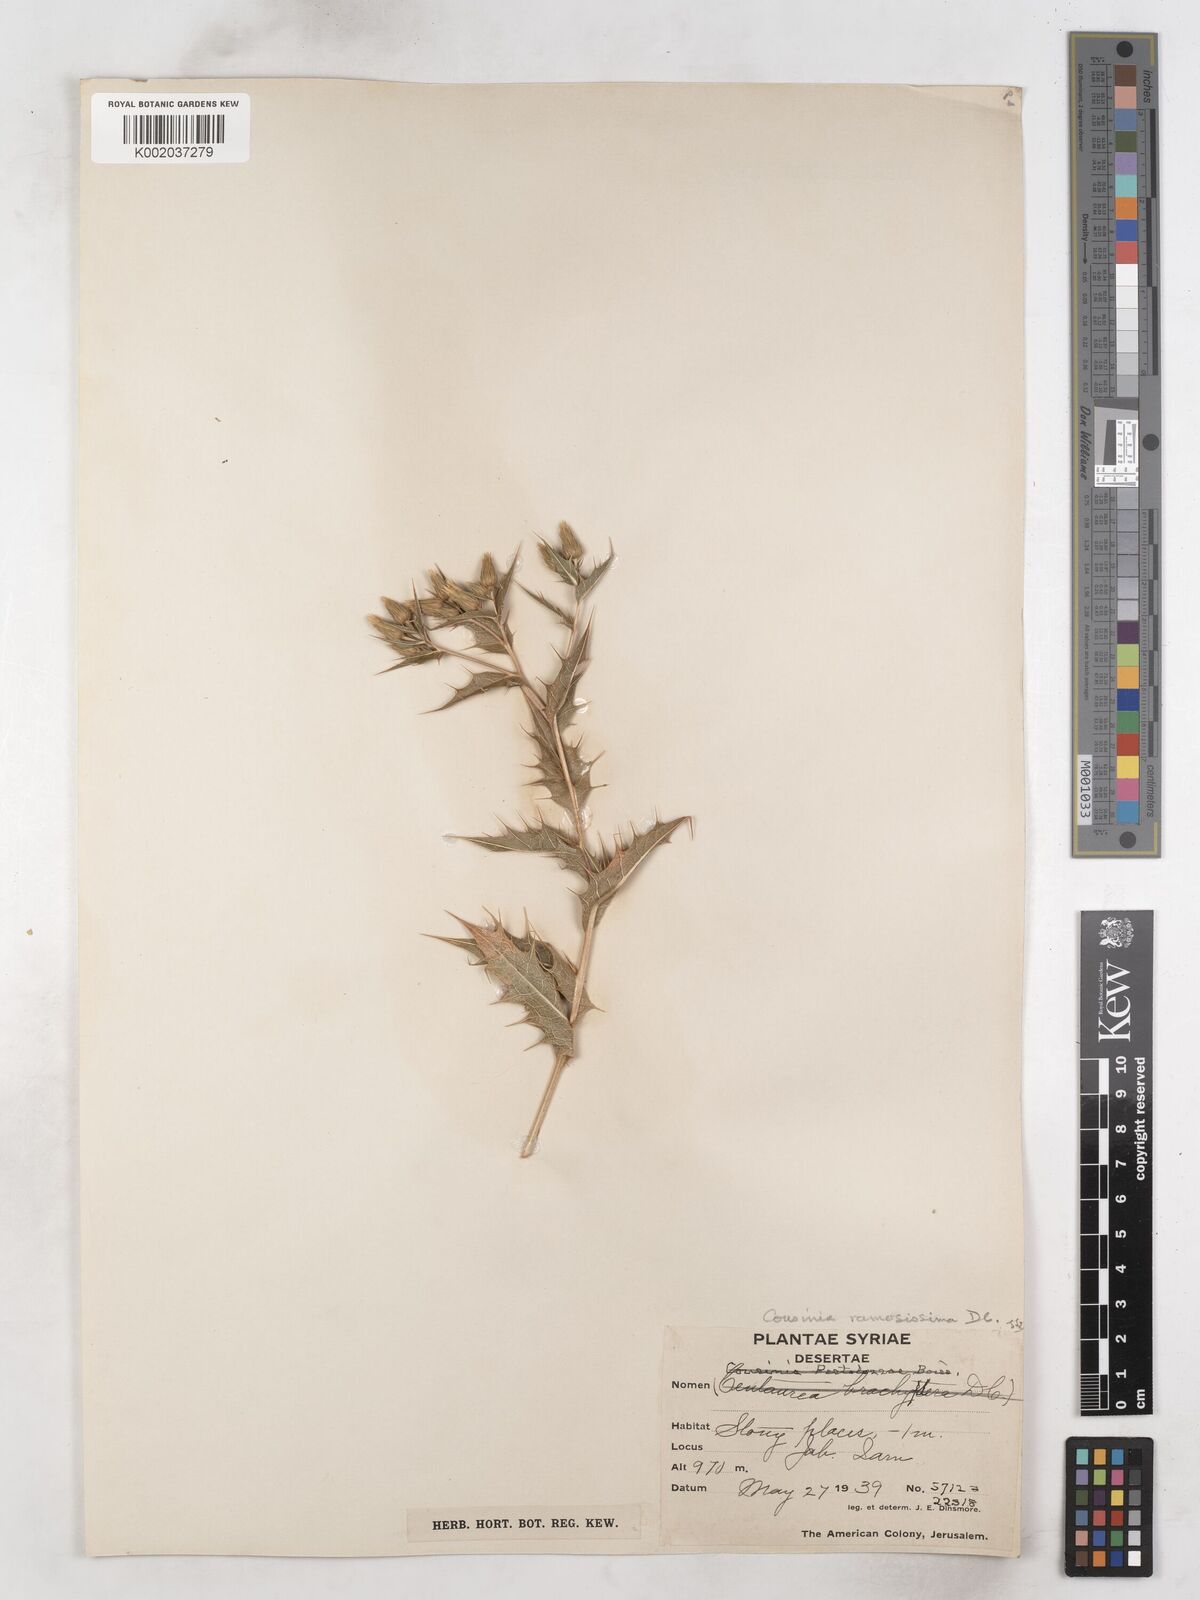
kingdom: Plantae
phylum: Tracheophyta
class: Magnoliopsida
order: Asterales
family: Asteraceae
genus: Cousinia
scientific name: Cousinia ramosissima
